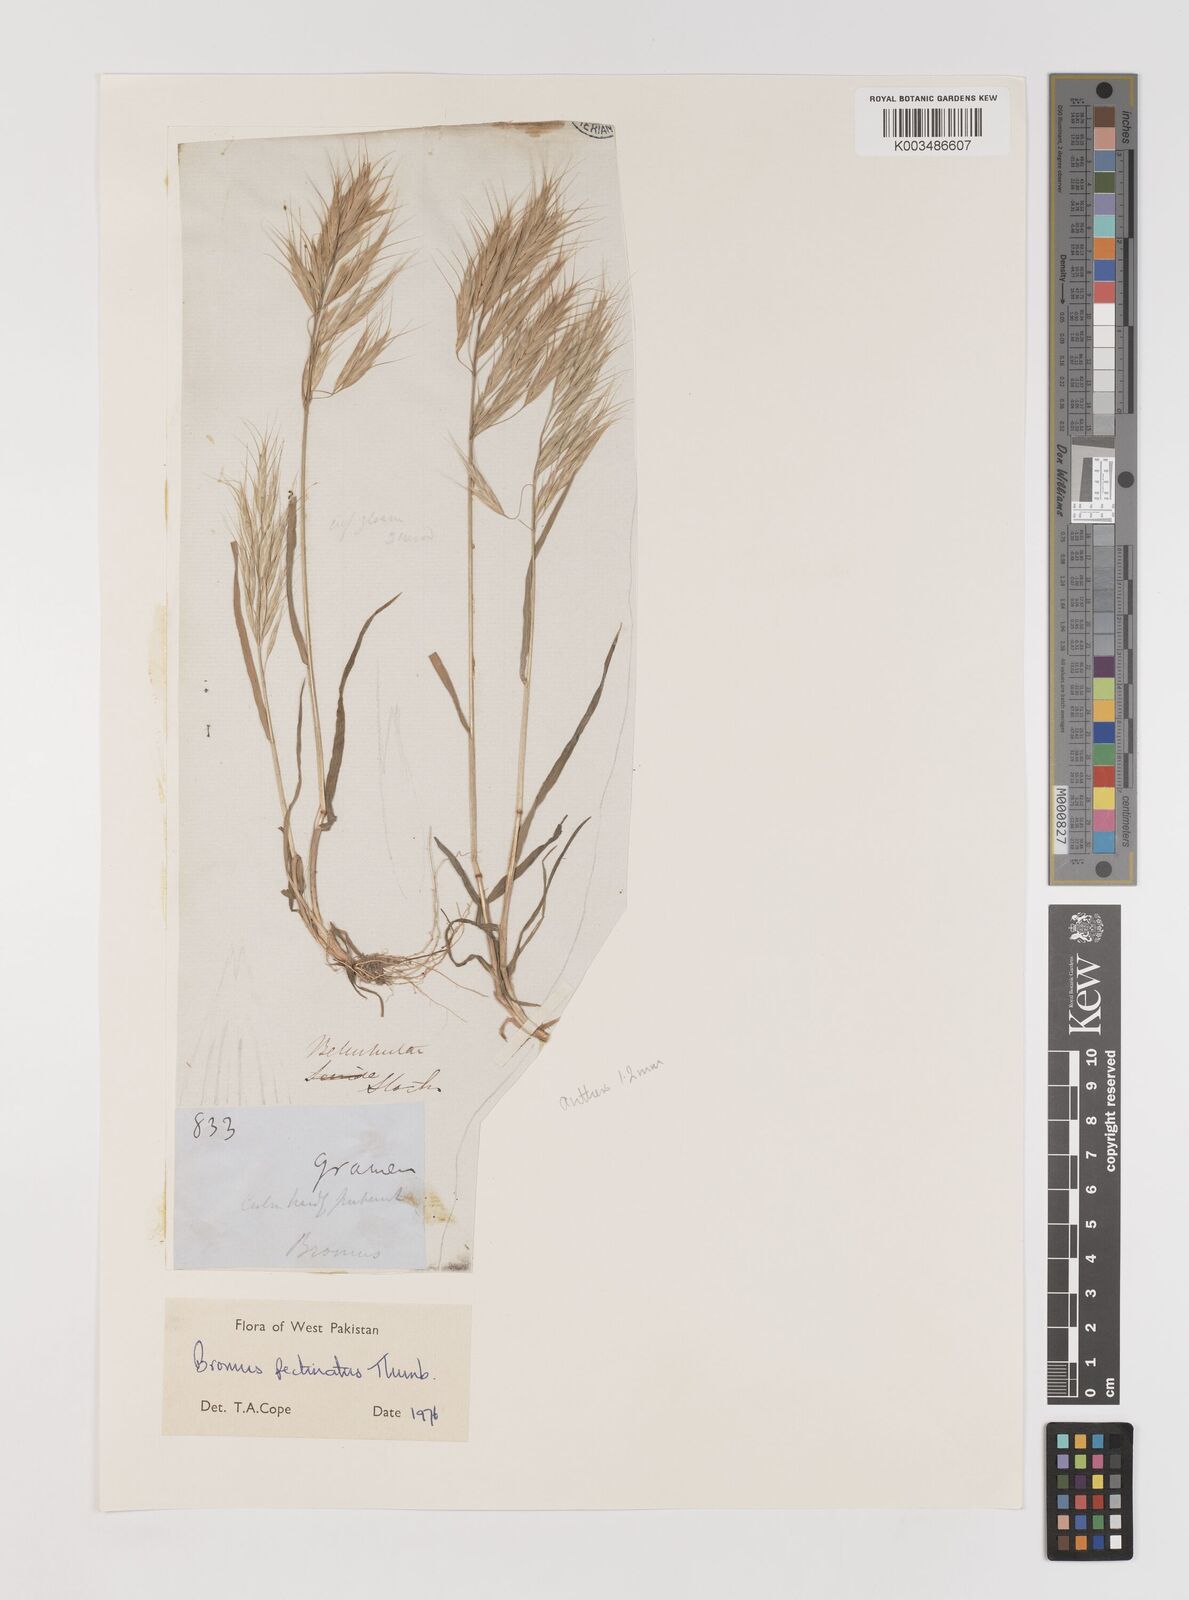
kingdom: Plantae
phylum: Tracheophyta
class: Liliopsida
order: Poales
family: Poaceae
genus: Bromus
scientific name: Bromus pectinatus
